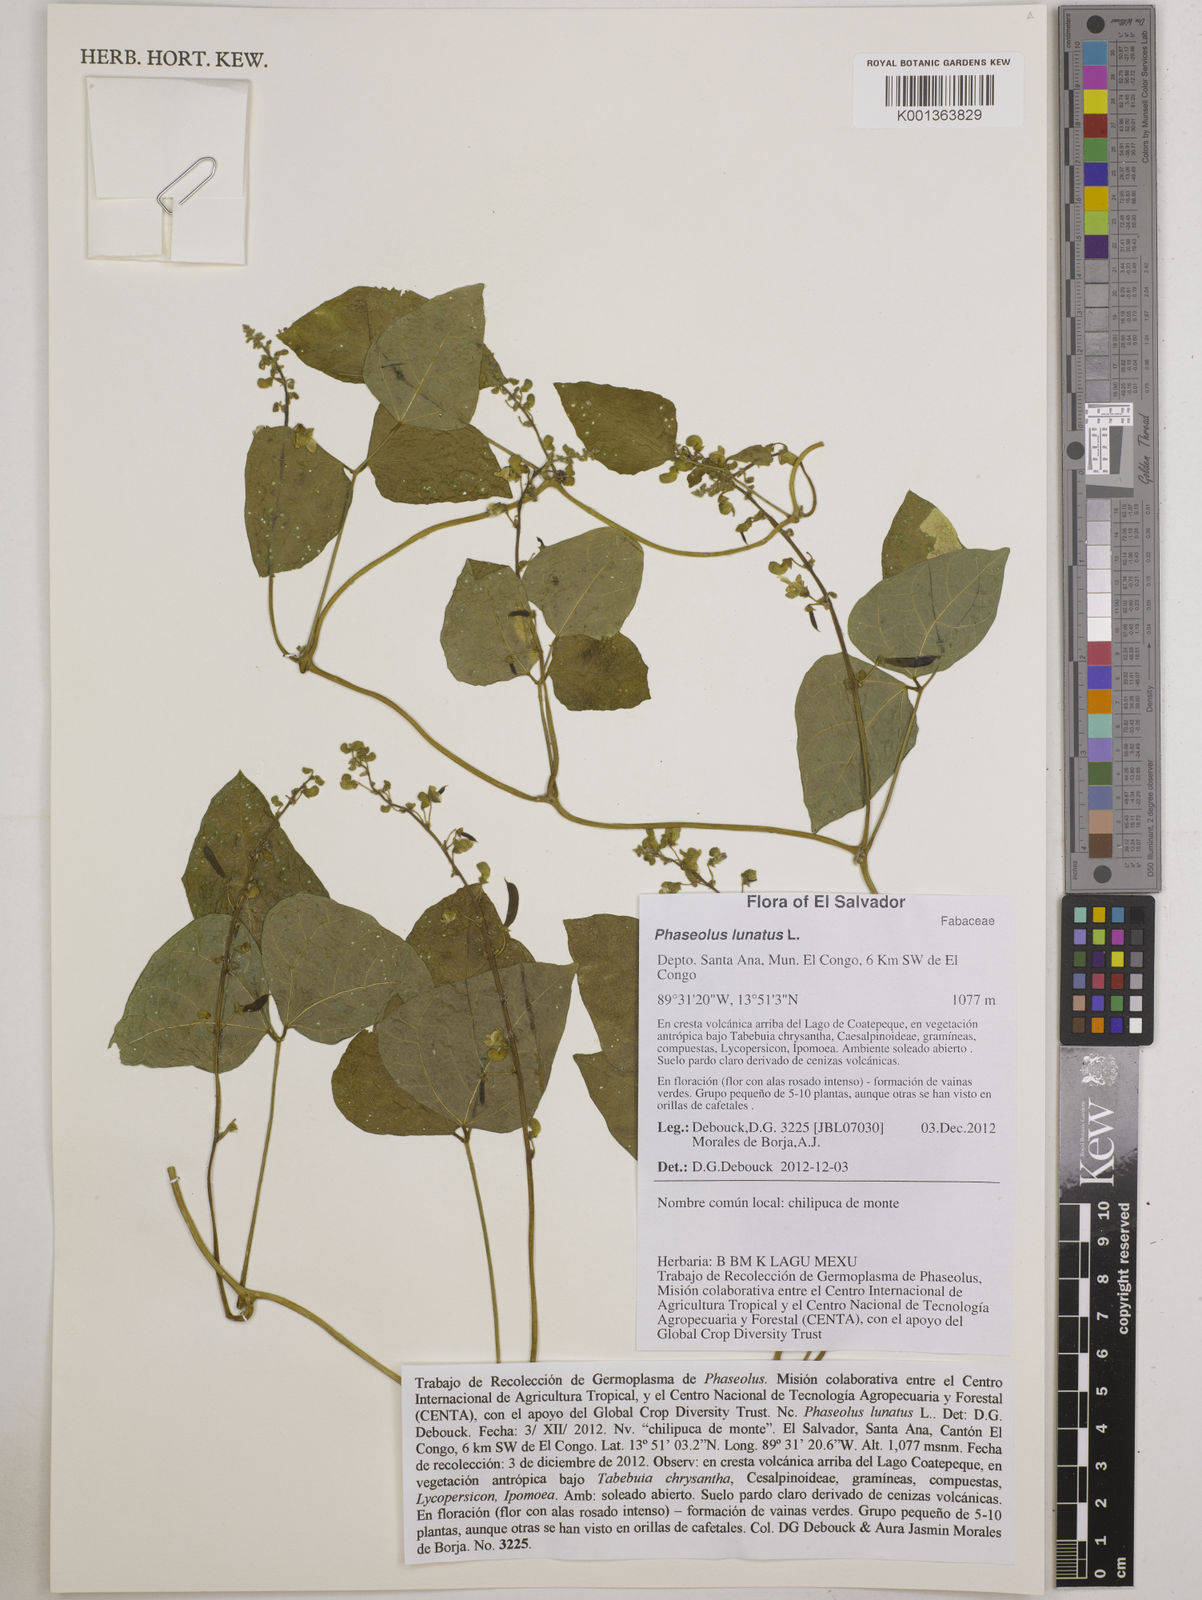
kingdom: Plantae
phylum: Tracheophyta
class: Magnoliopsida
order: Fabales
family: Fabaceae
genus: Phaseolus
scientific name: Phaseolus lunatus
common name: Sieva bean
